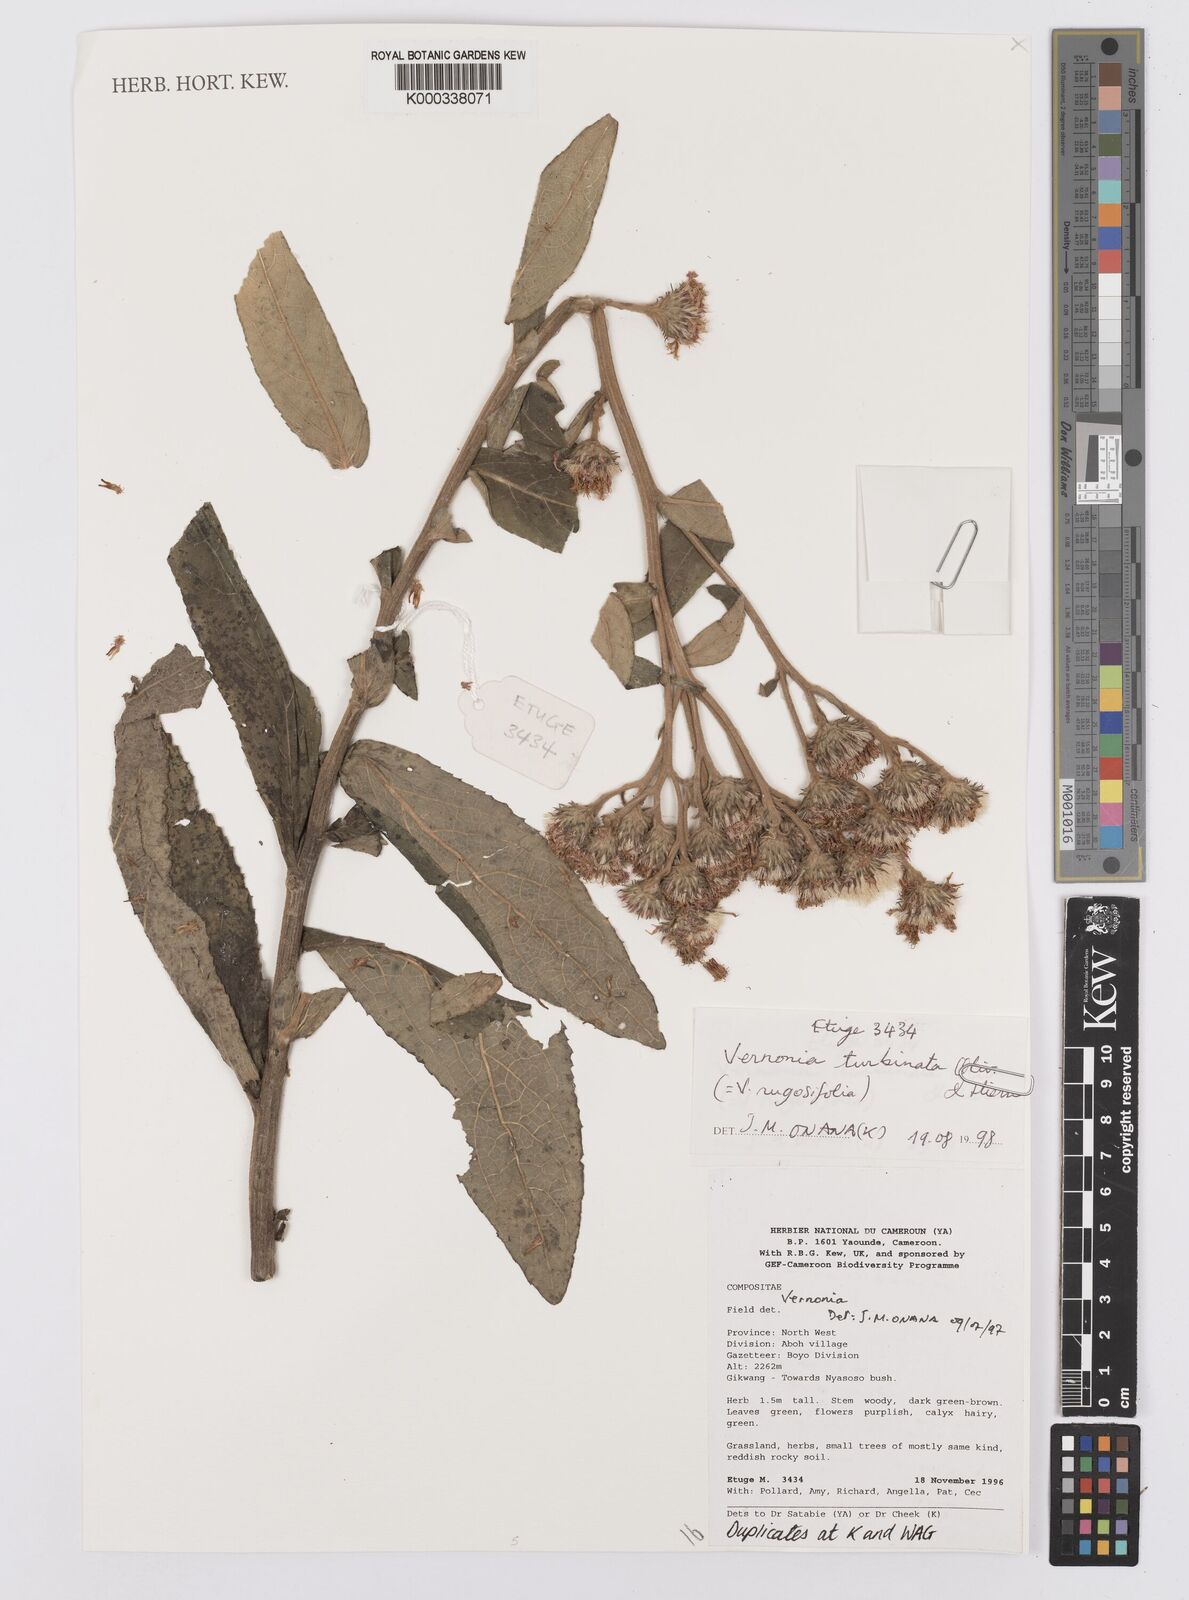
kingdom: Plantae
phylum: Tracheophyta
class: Magnoliopsida
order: Asterales
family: Asteraceae
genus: Orbivestus
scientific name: Orbivestus turbinata
